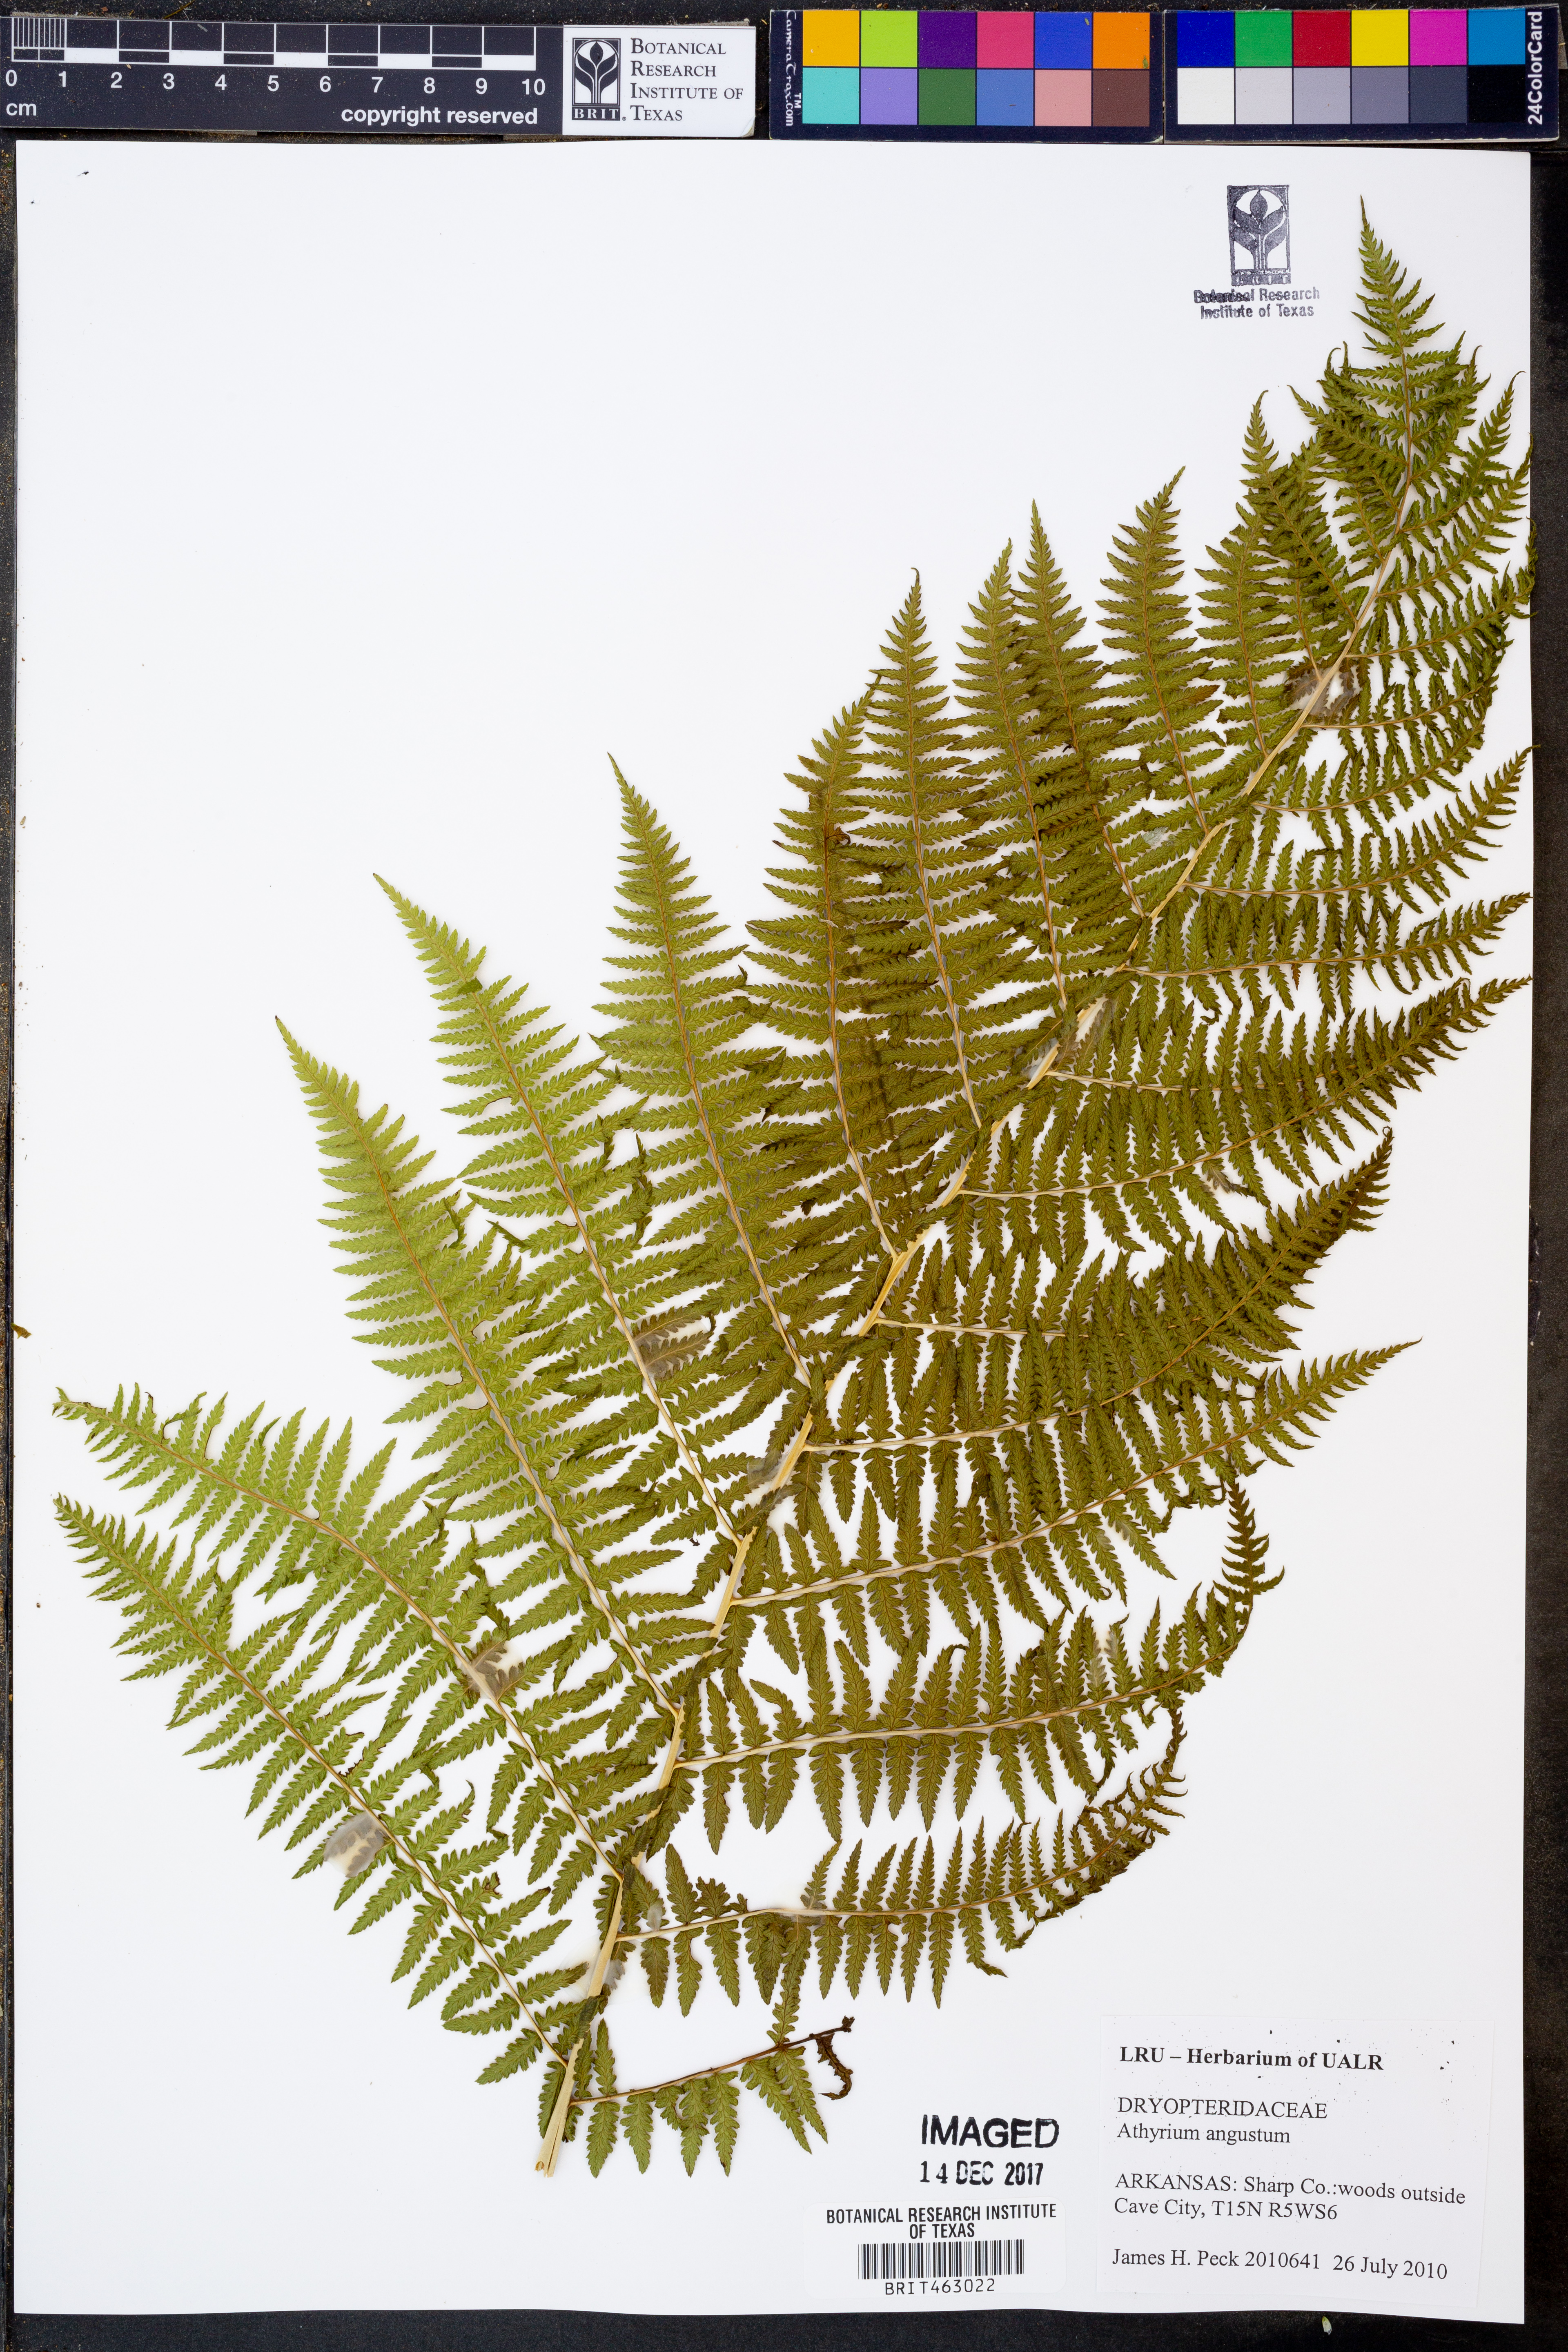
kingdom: Plantae
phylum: Tracheophyta
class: Polypodiopsida
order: Polypodiales
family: Athyriaceae
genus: Athyrium
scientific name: Athyrium angustum
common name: Northern lady fern
